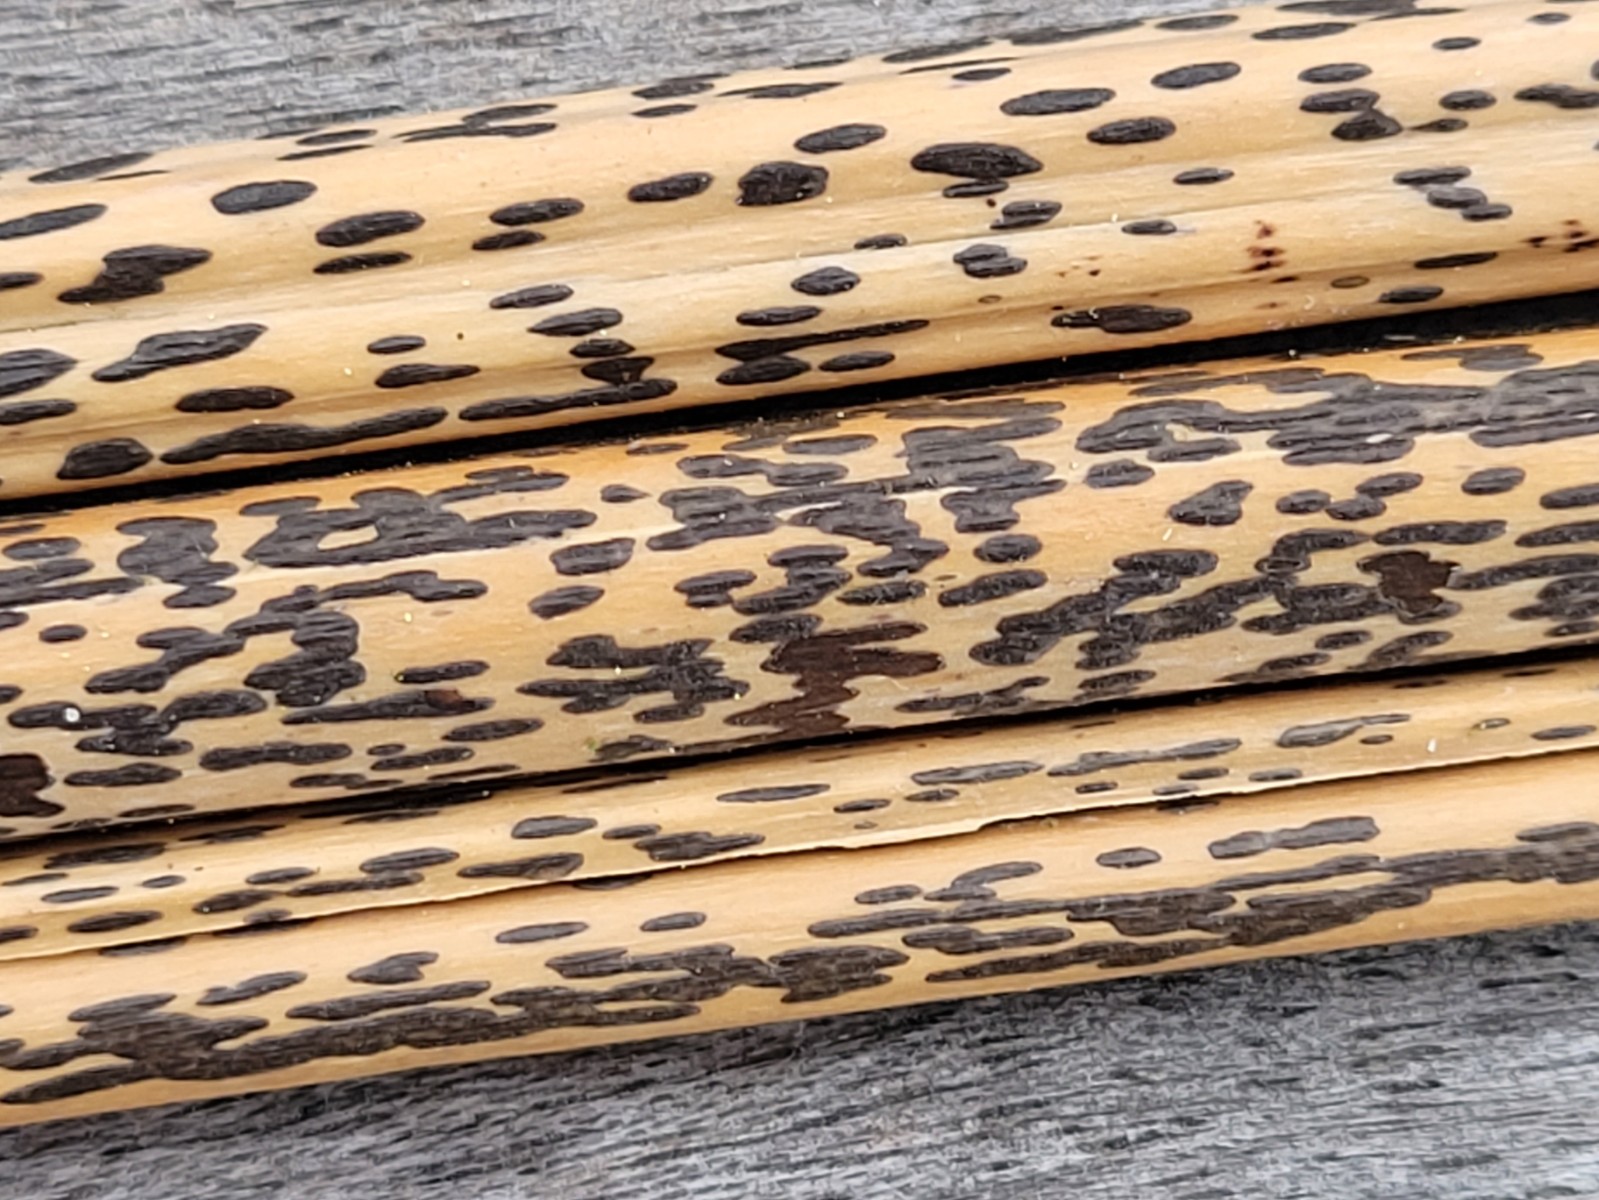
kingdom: Fungi
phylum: Ascomycota
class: Dothideomycetes
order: Pleosporales
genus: Rhopographus
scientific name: Rhopographus filicinus
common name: Bracken map
